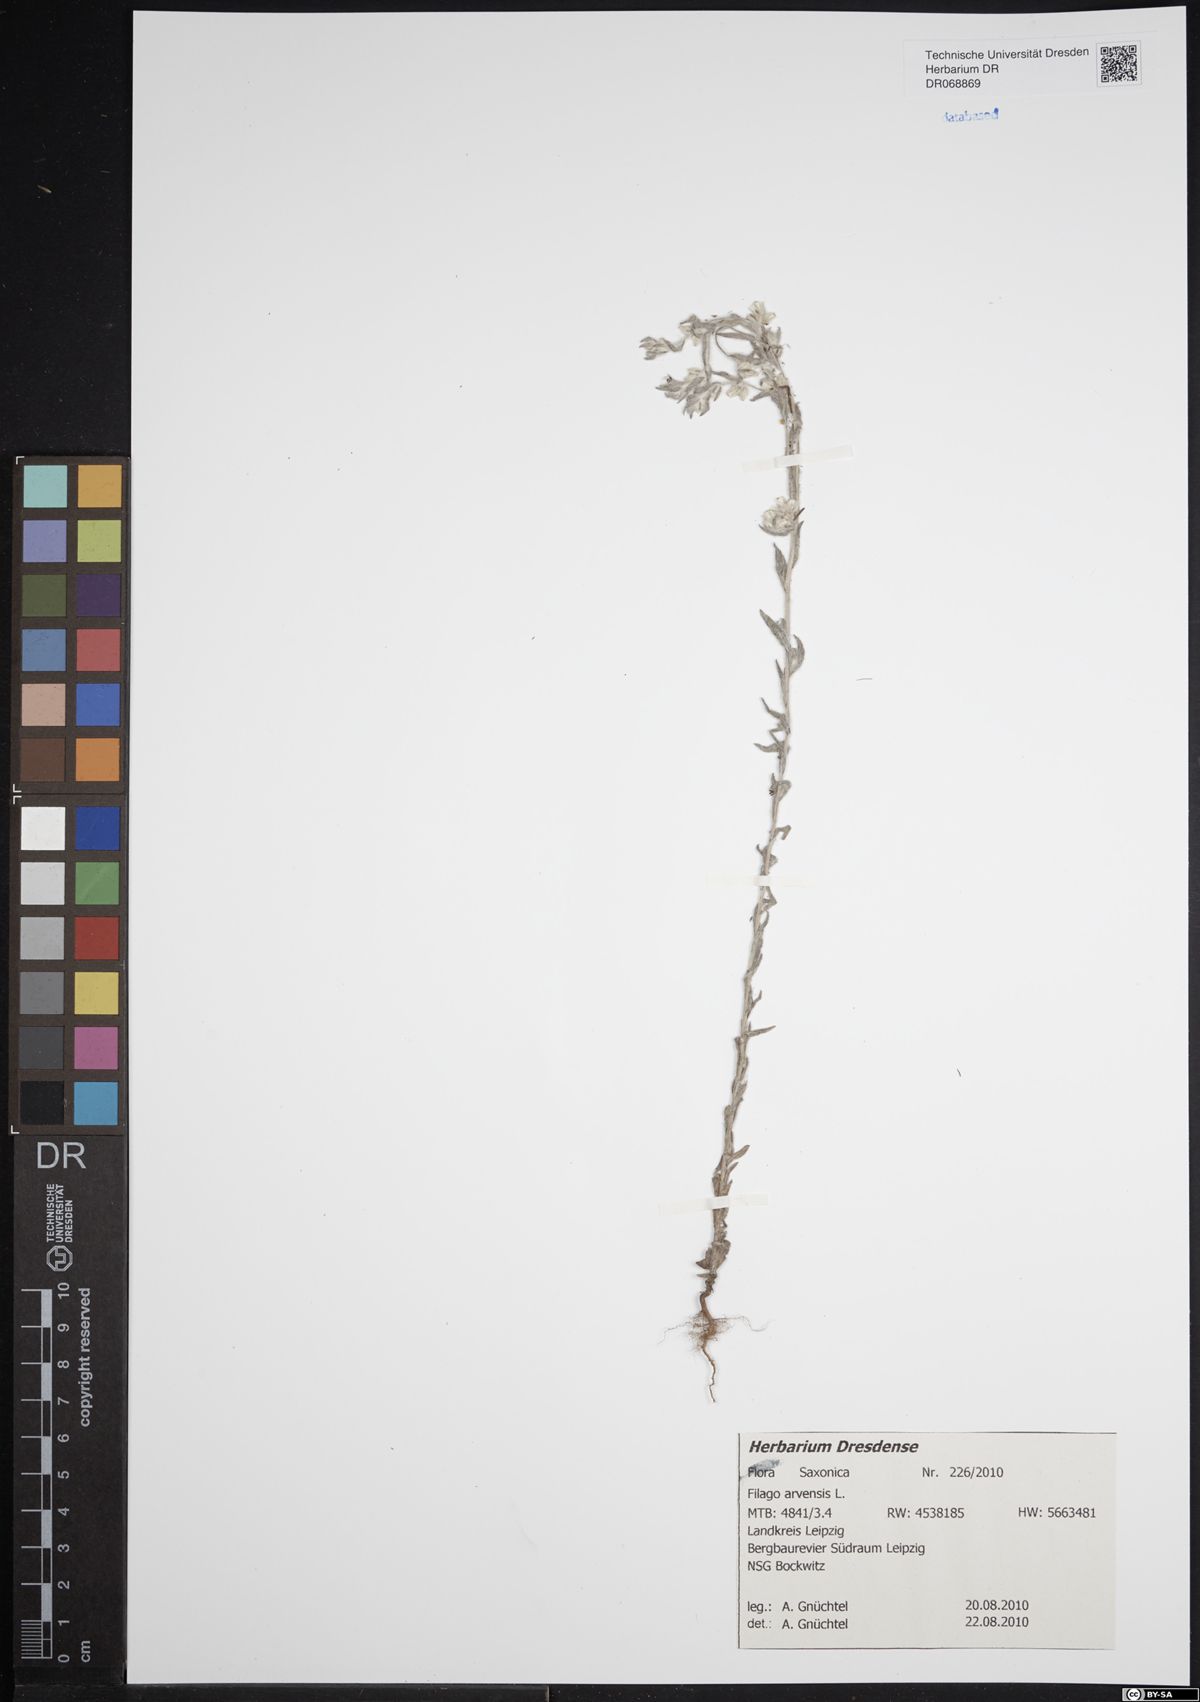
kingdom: Plantae
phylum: Tracheophyta
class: Magnoliopsida
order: Asterales
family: Asteraceae
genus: Filago
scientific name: Filago arvensis
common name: Field cudweed
